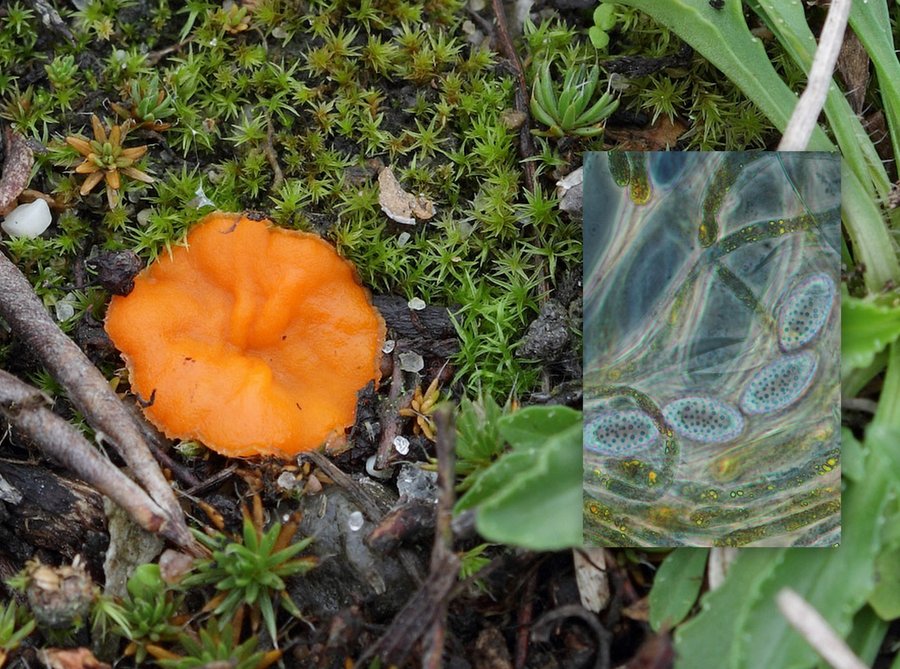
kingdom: Fungi
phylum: Ascomycota
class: Pezizomycetes
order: Pezizales
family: Pyronemataceae
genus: Neottiella
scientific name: Neottiella vivida
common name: sand-mosbæger
